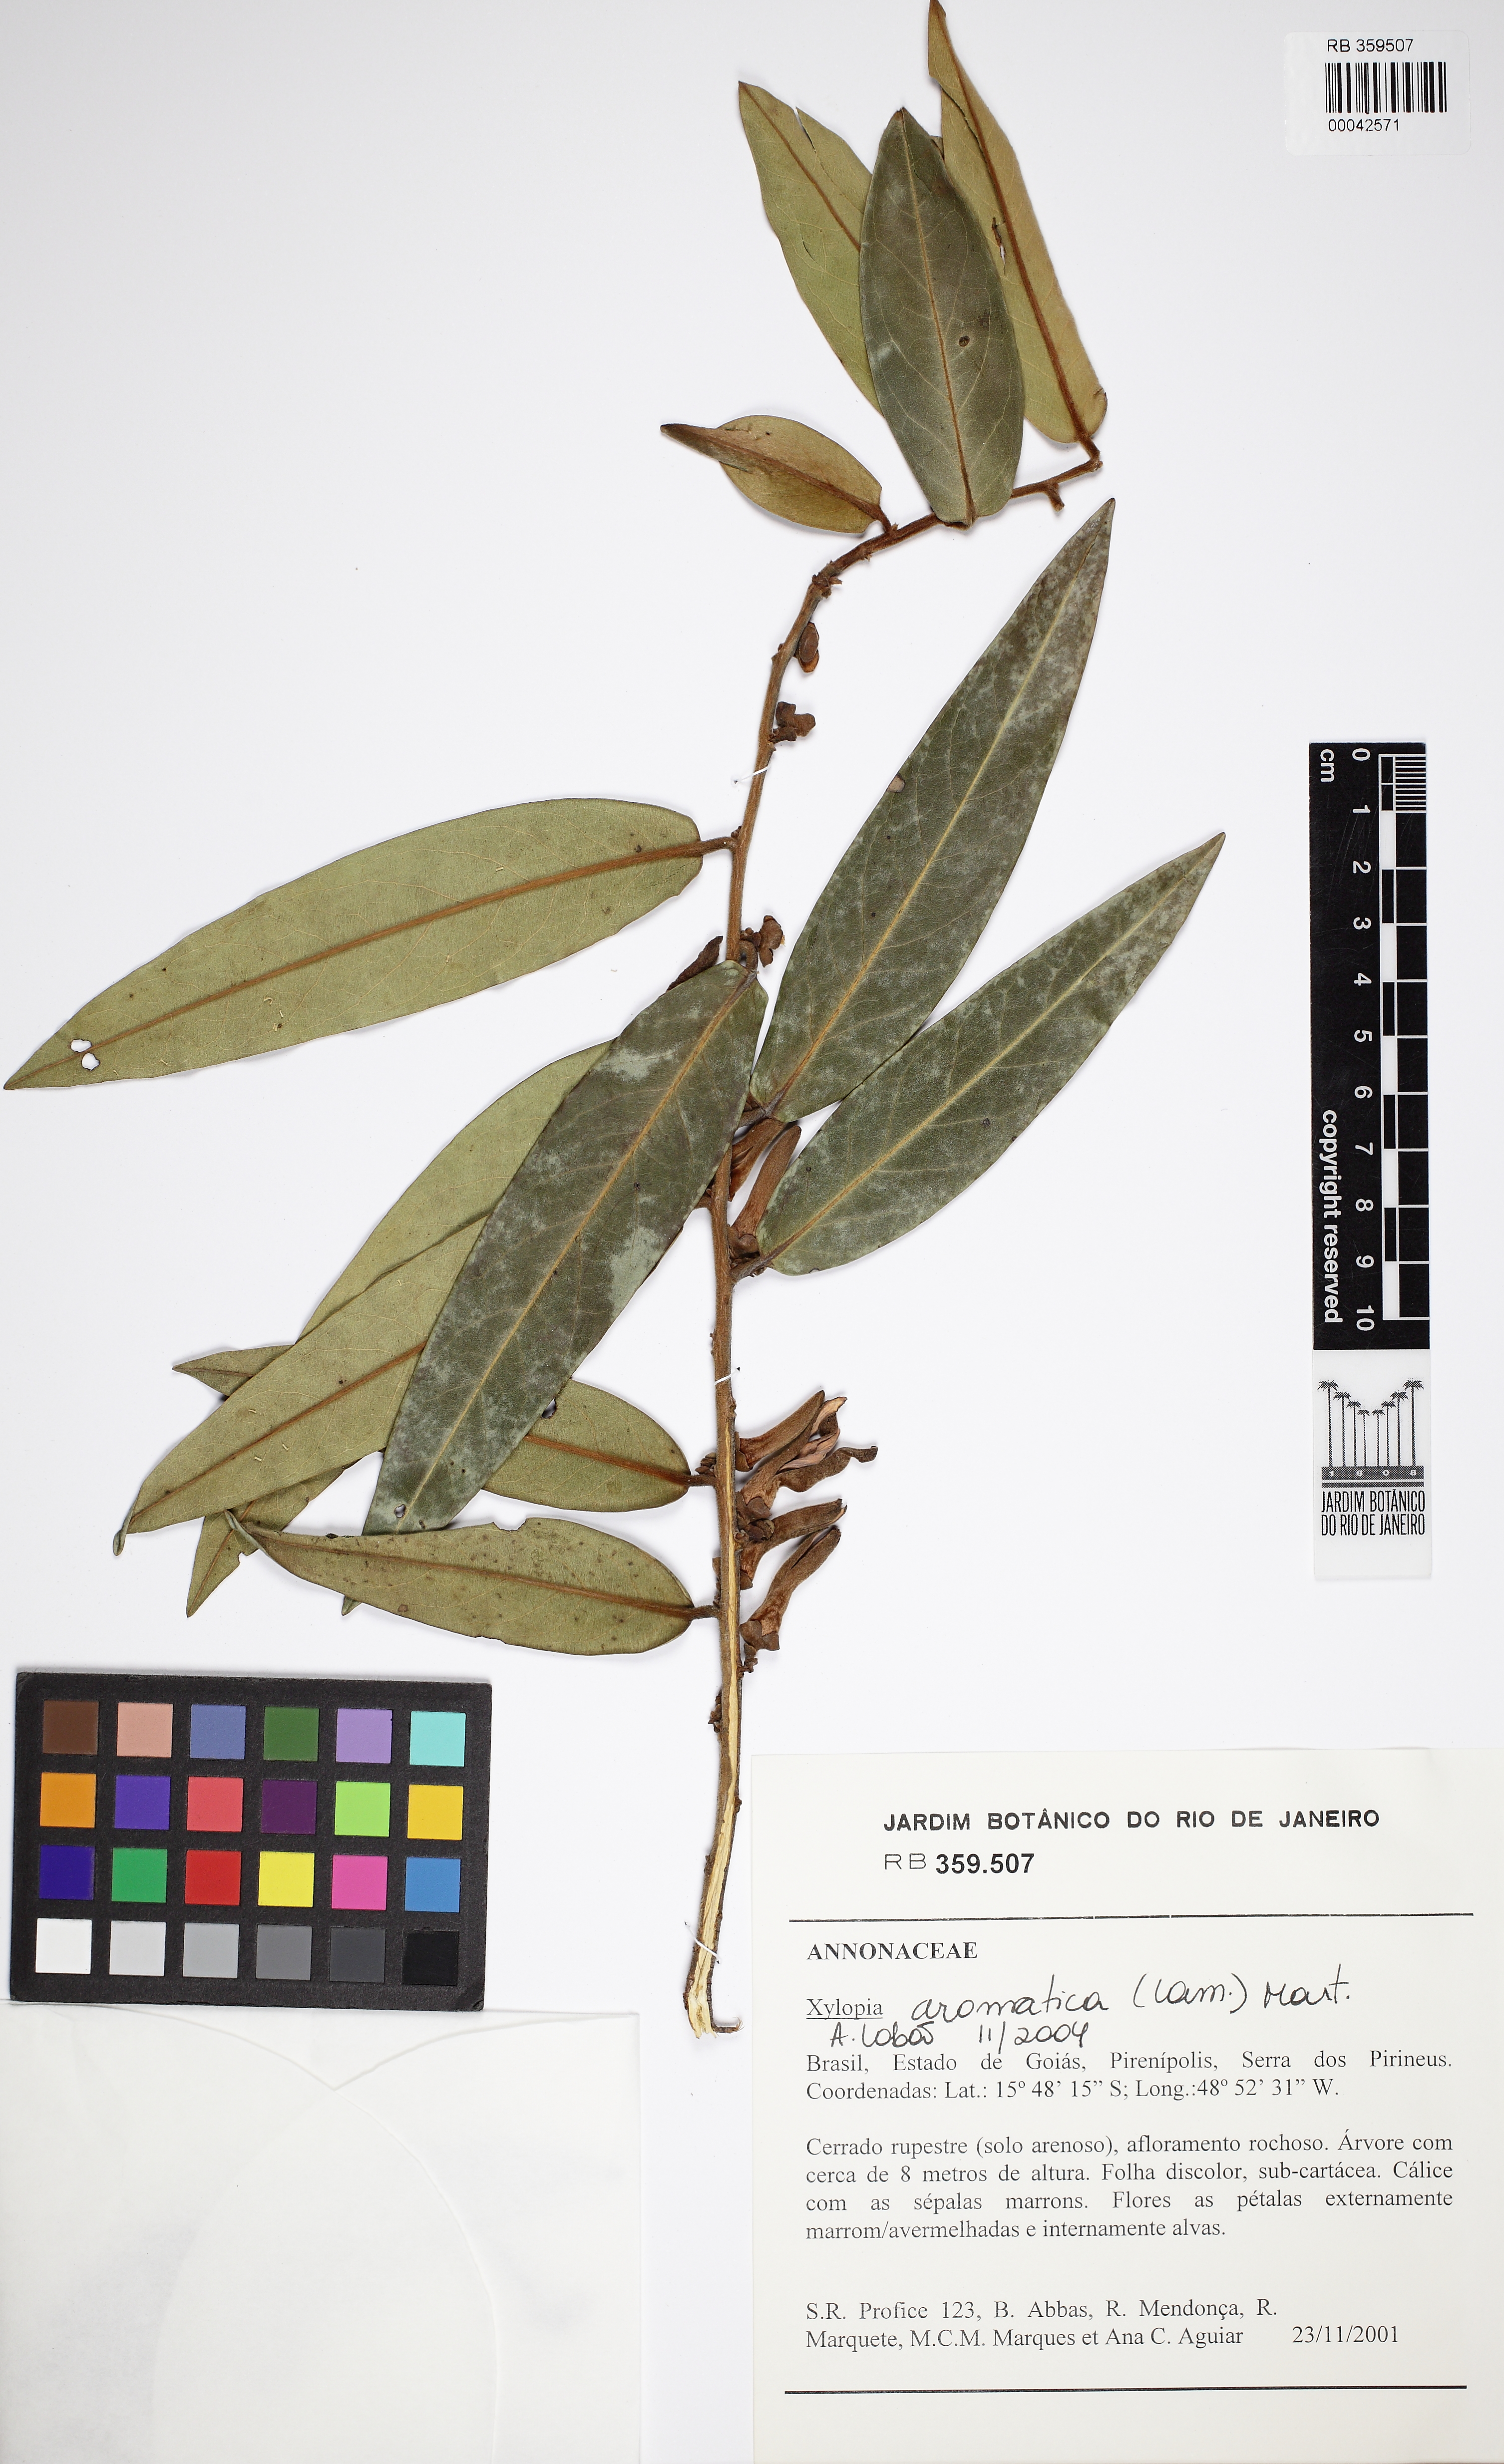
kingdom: Plantae
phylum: Tracheophyta
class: Magnoliopsida
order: Magnoliales
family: Annonaceae
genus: Xylopia
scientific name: Xylopia aromatica
